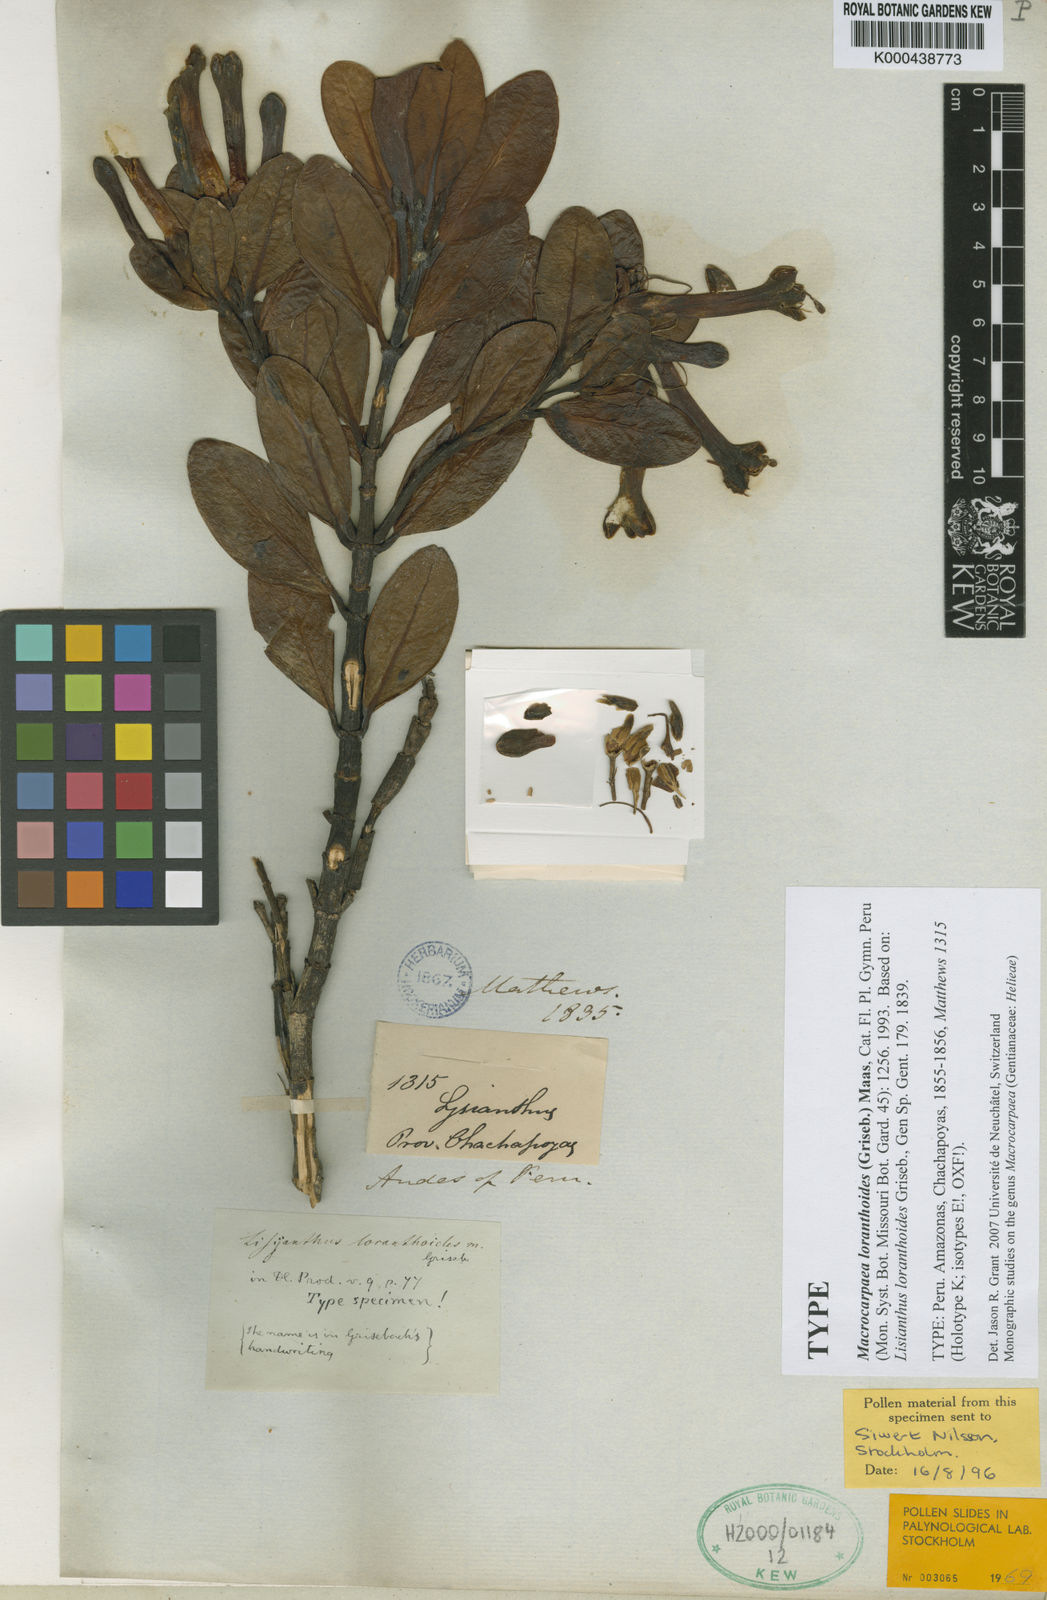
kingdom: Plantae
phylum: Tracheophyta
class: Magnoliopsida
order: Gentianales
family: Gentianaceae
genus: Macrocarpaea
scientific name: Macrocarpaea loranthoides
